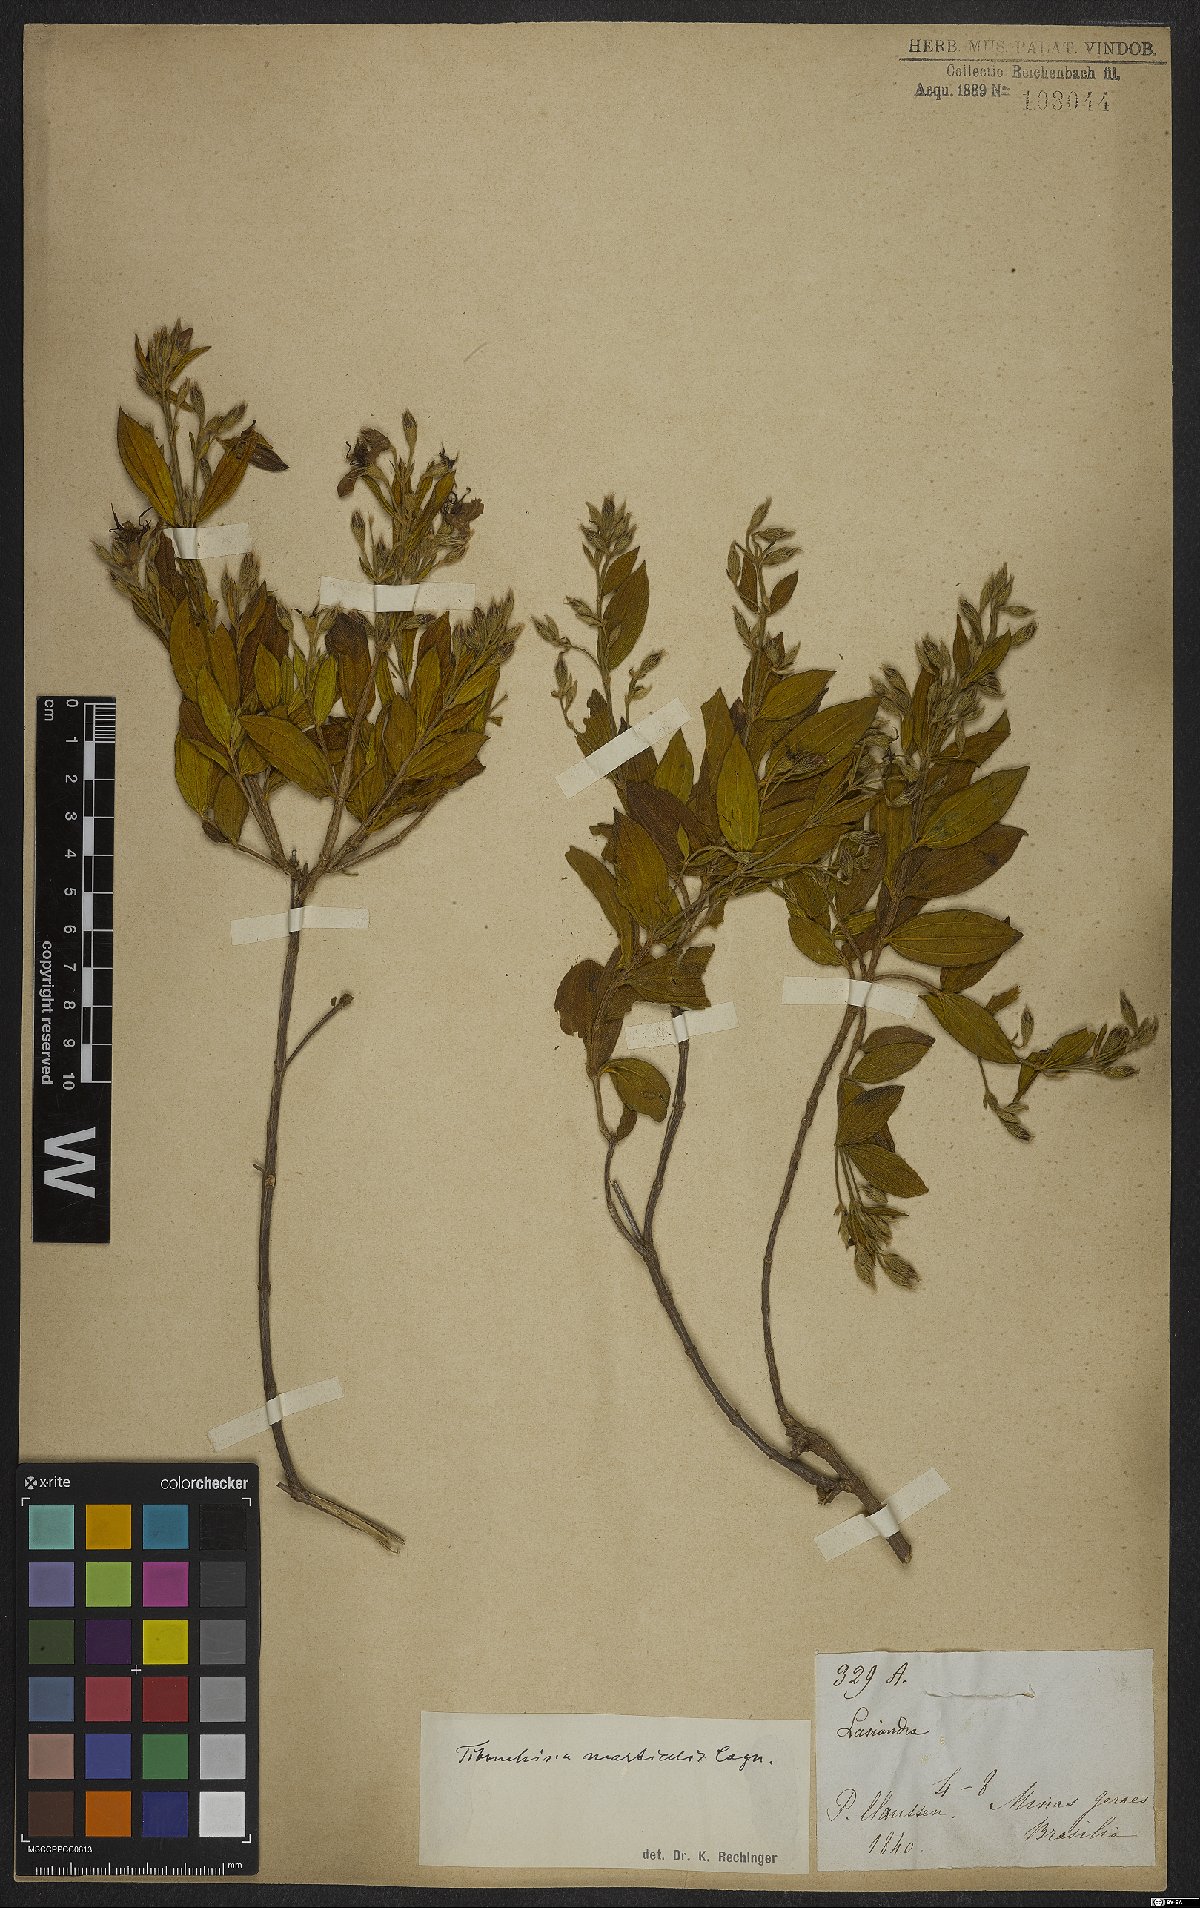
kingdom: Plantae
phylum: Tracheophyta
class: Magnoliopsida
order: Myrtales
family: Melastomataceae
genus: Pleroma
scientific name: Pleroma martiale
